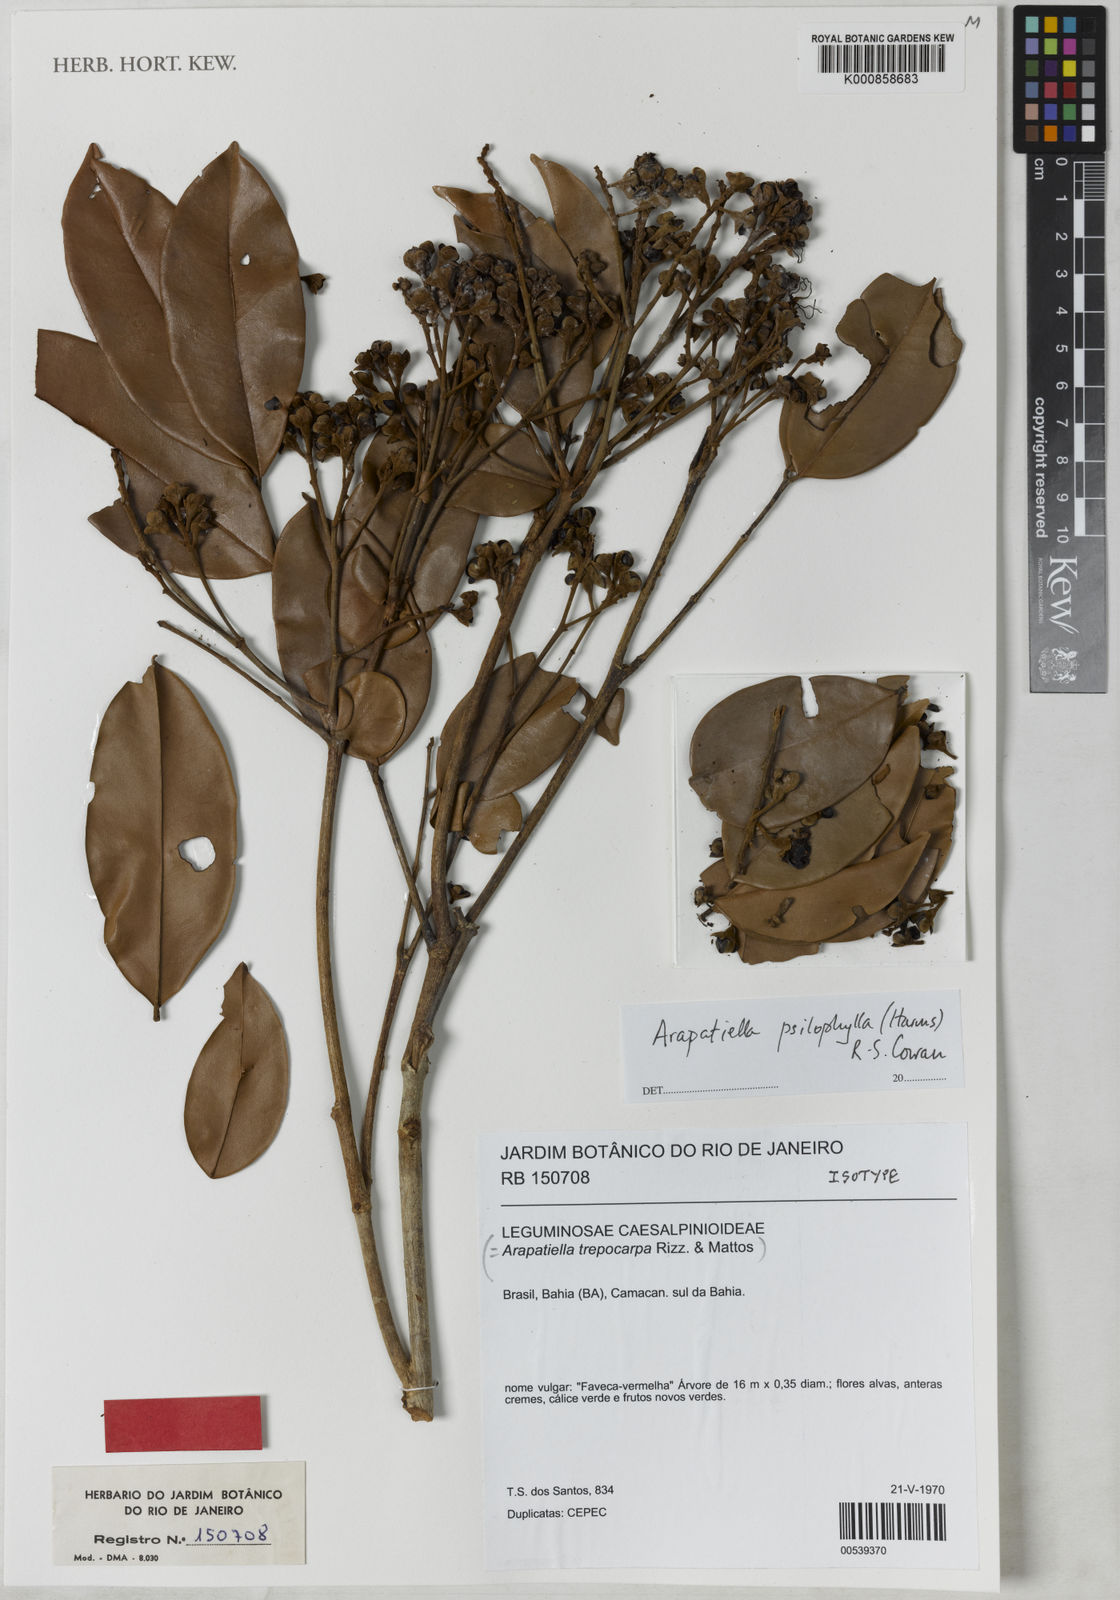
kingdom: Plantae
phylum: Tracheophyta
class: Magnoliopsida
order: Fabales
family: Fabaceae
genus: Arapatiella
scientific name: Arapatiella psilophylla
